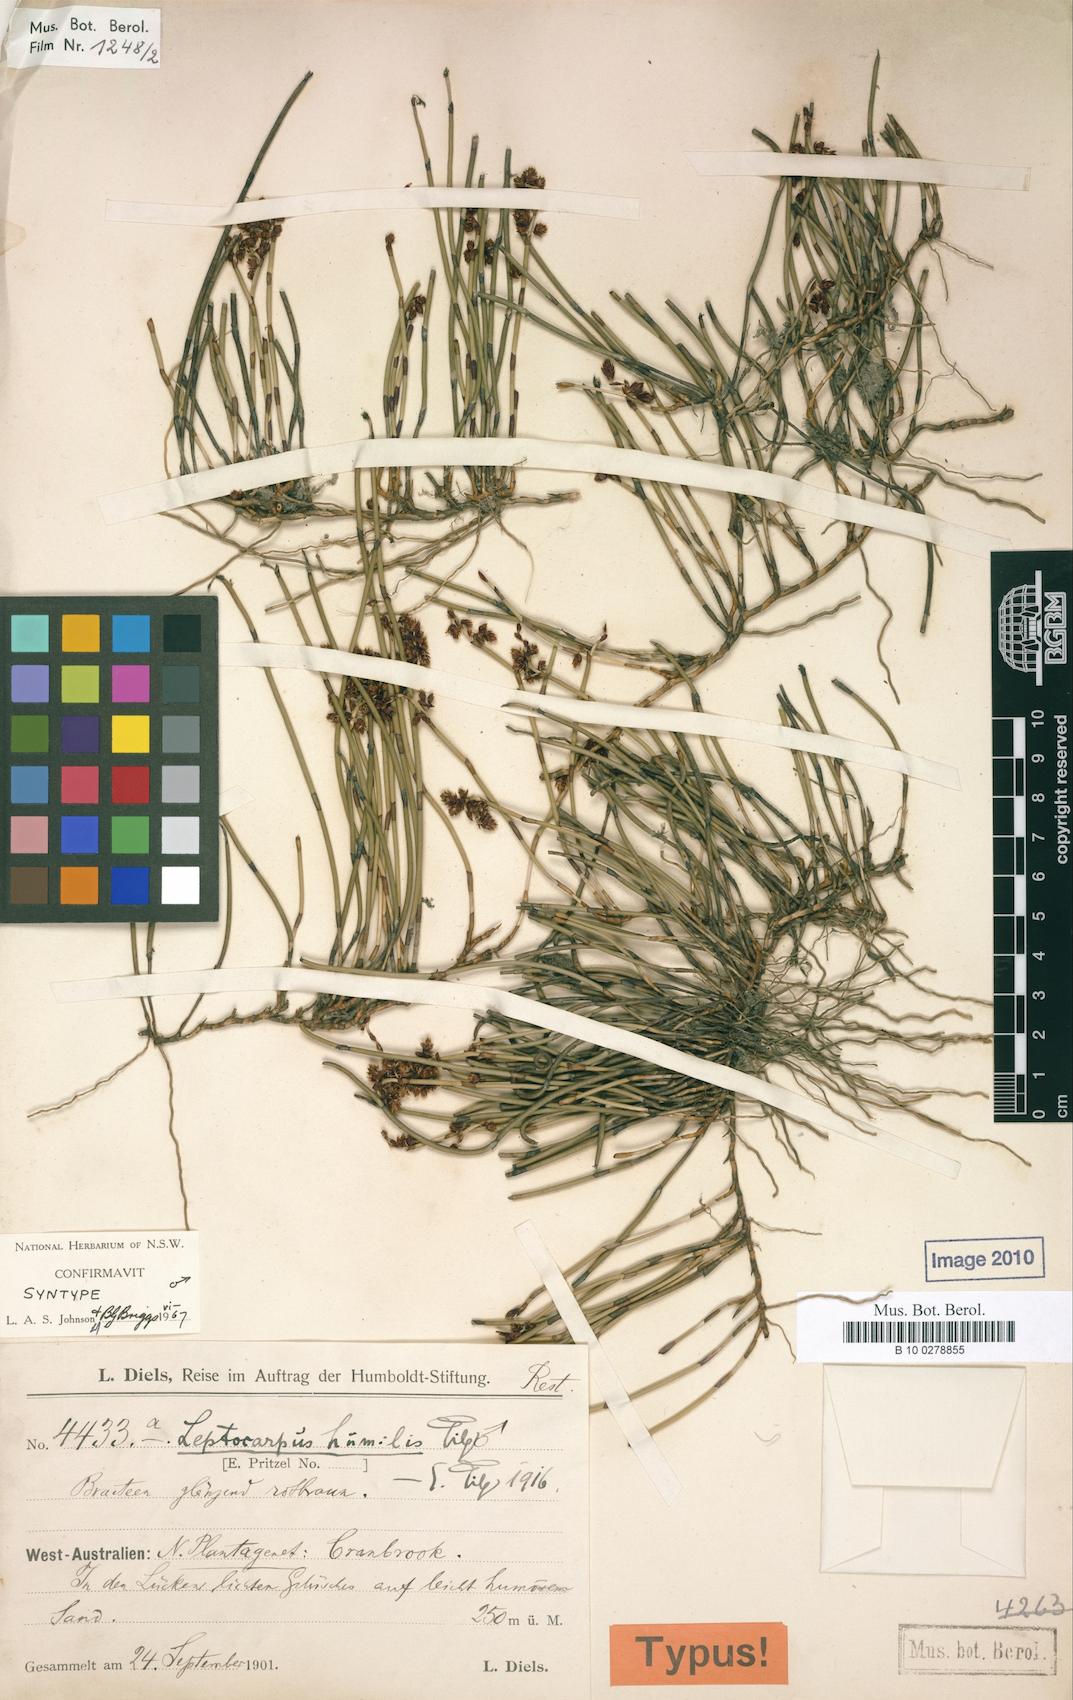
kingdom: Plantae
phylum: Tracheophyta
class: Liliopsida
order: Poales
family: Restionaceae
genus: Leptocarpus
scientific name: Leptocarpus humilis
